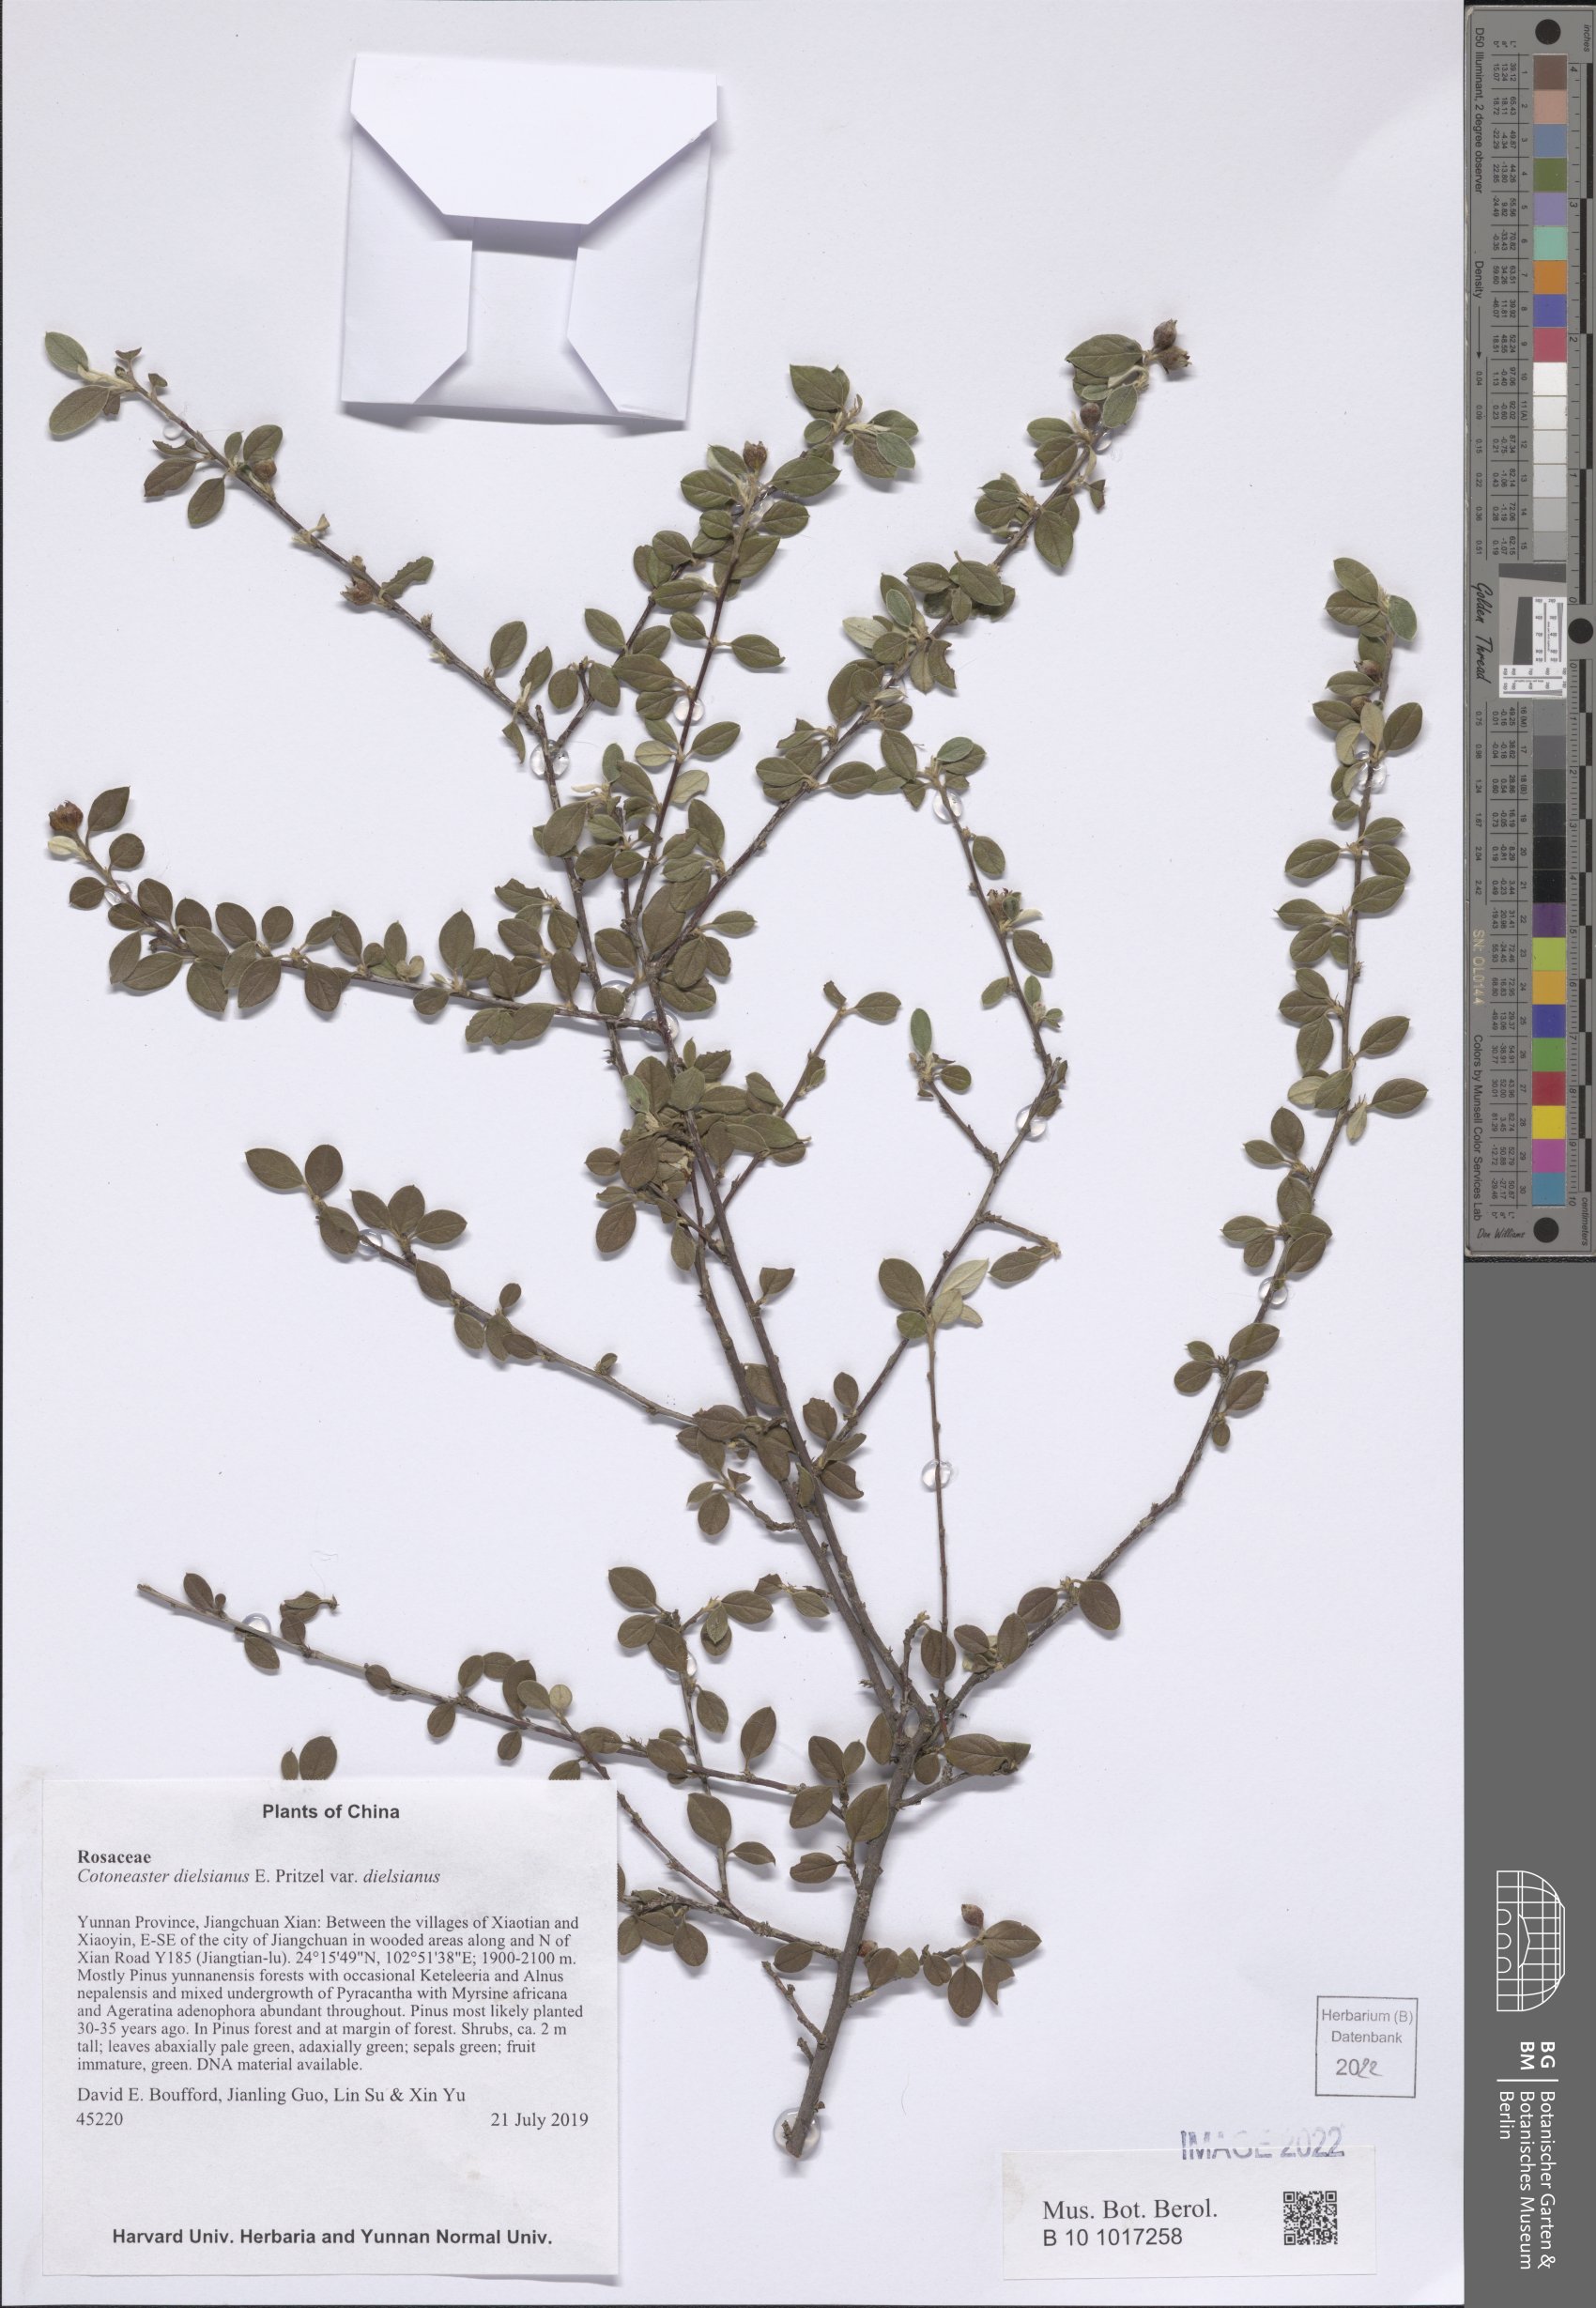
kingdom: Plantae
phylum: Tracheophyta
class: Magnoliopsida
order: Rosales
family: Rosaceae
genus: Cotoneaster
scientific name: Cotoneaster dielsianus
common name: Diels's cotoneaster
